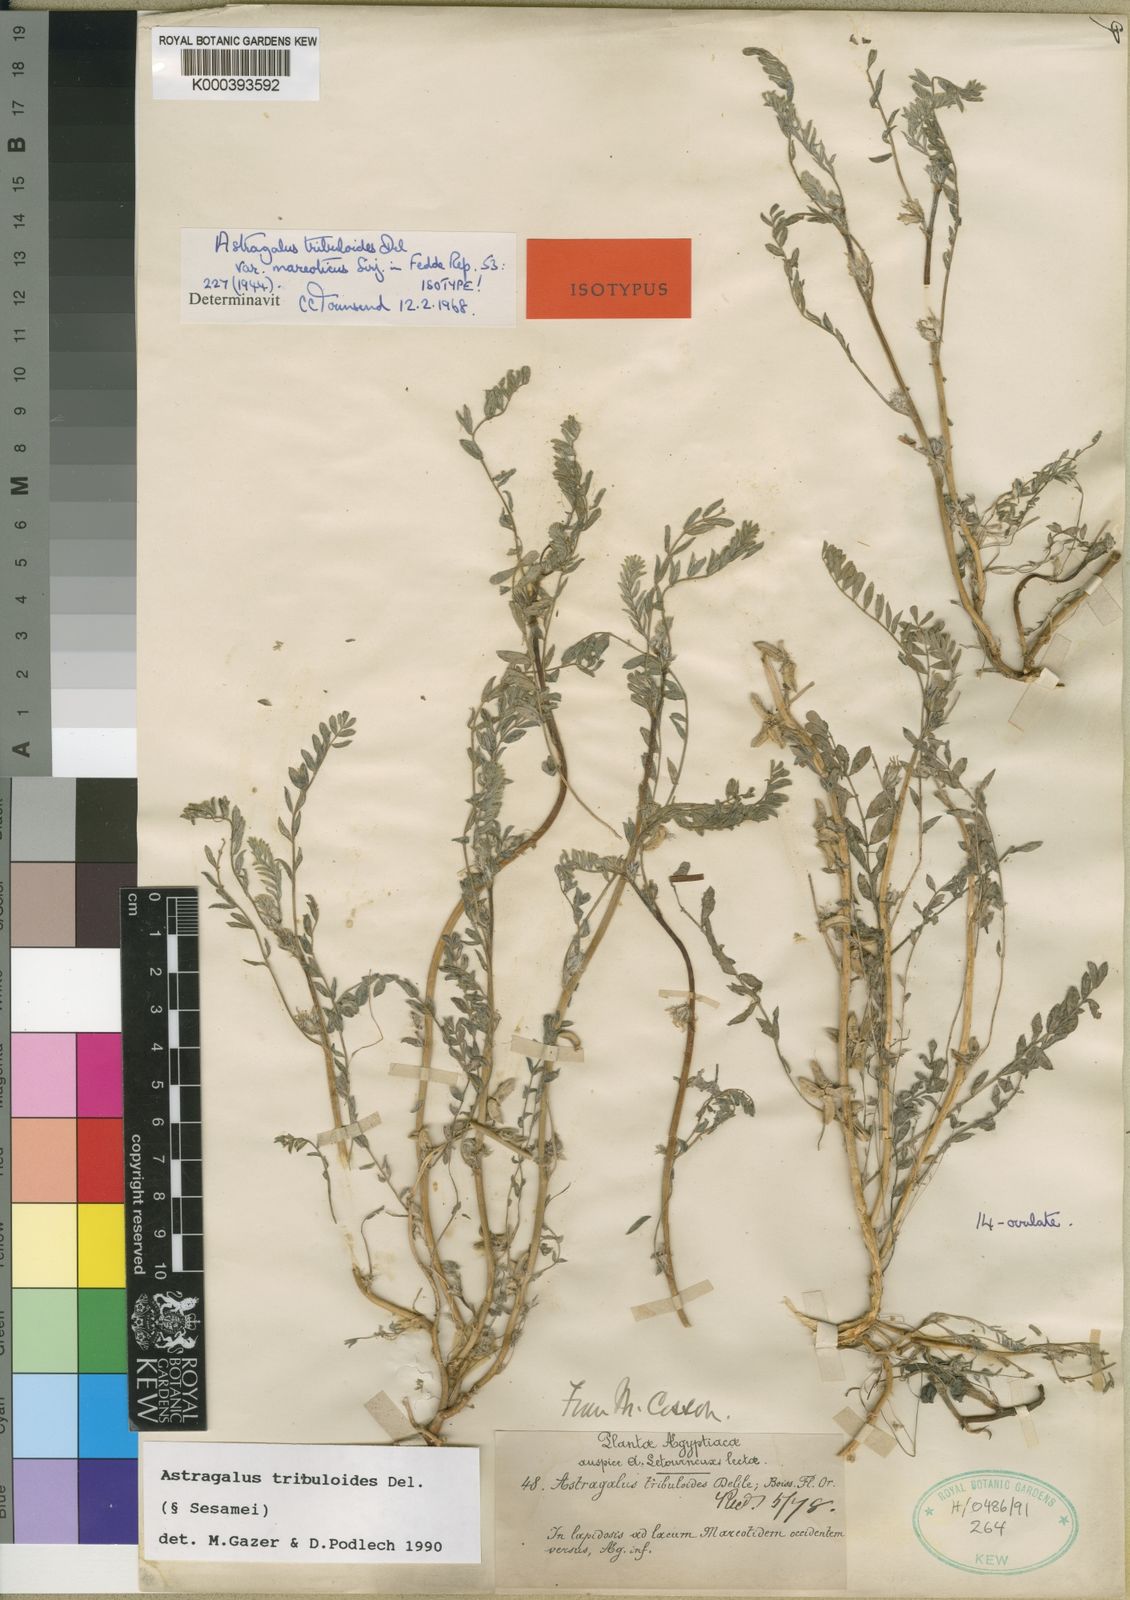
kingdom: Plantae
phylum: Tracheophyta
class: Magnoliopsida
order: Fabales
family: Fabaceae
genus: Astragalus
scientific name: Astragalus tribuloides
